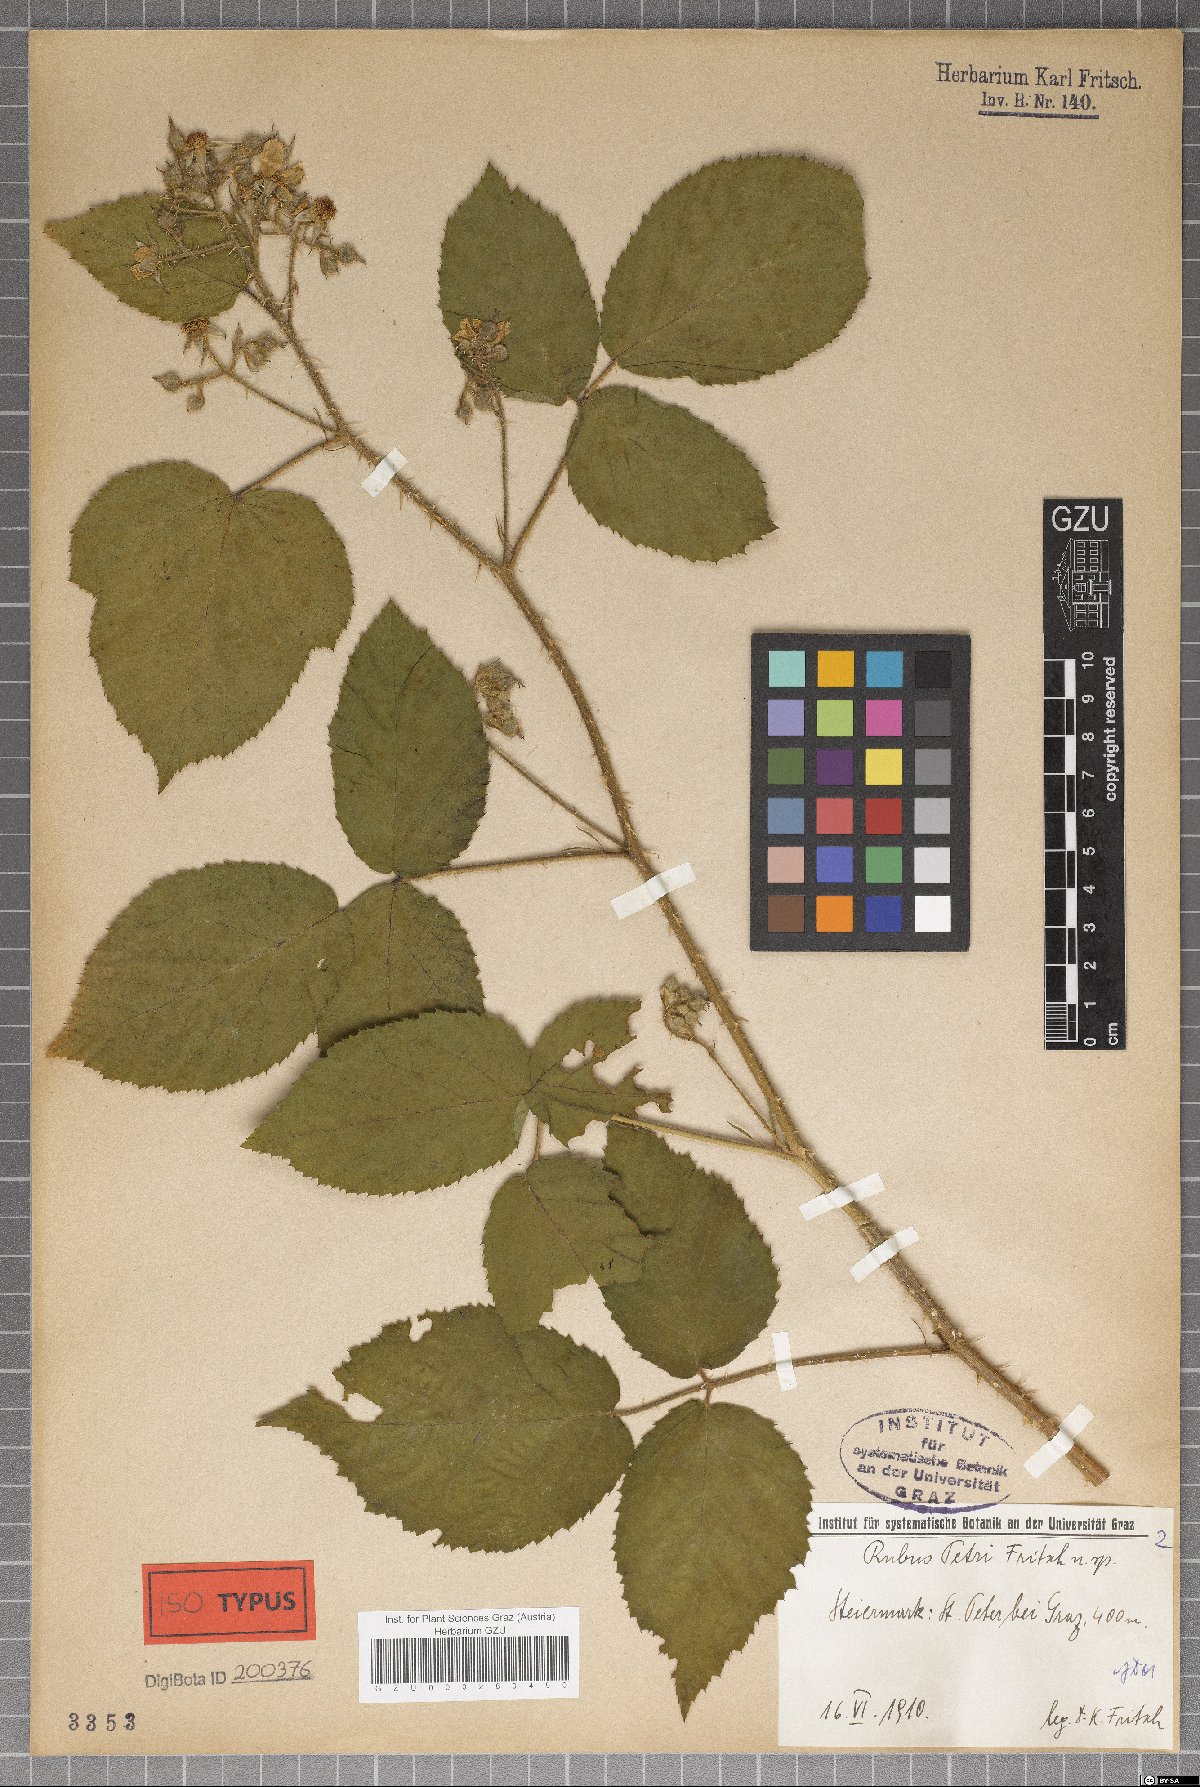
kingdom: Plantae
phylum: Tracheophyta
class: Magnoliopsida
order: Rosales
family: Rosaceae
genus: Rubus
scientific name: Rubus petri
